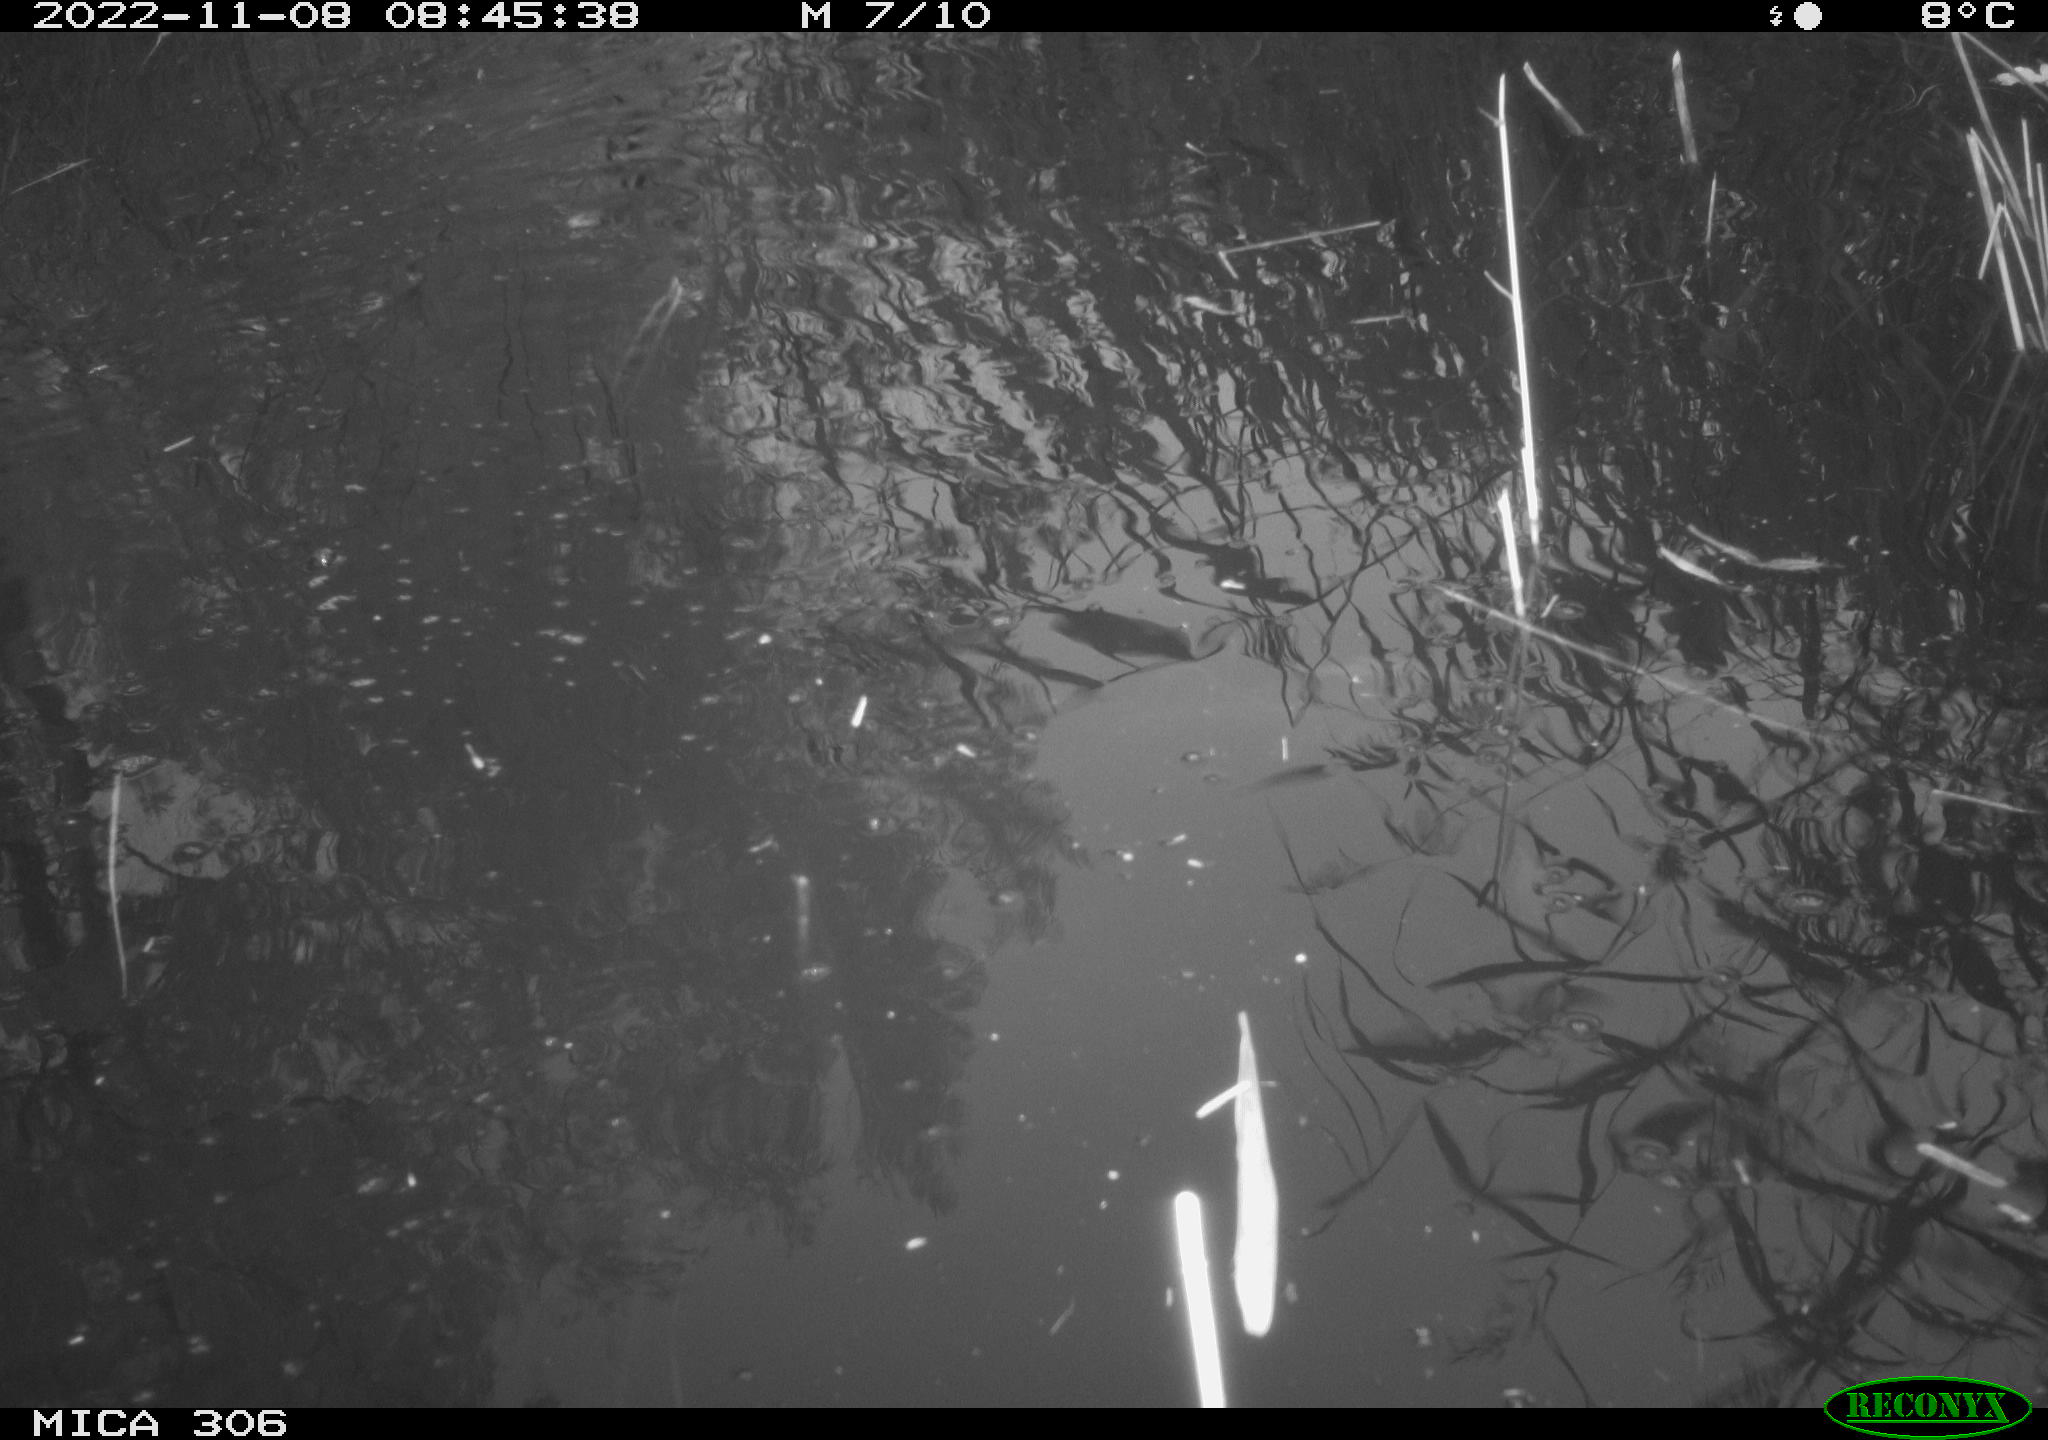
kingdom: Animalia
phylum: Chordata
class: Mammalia
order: Rodentia
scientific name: Rodentia
